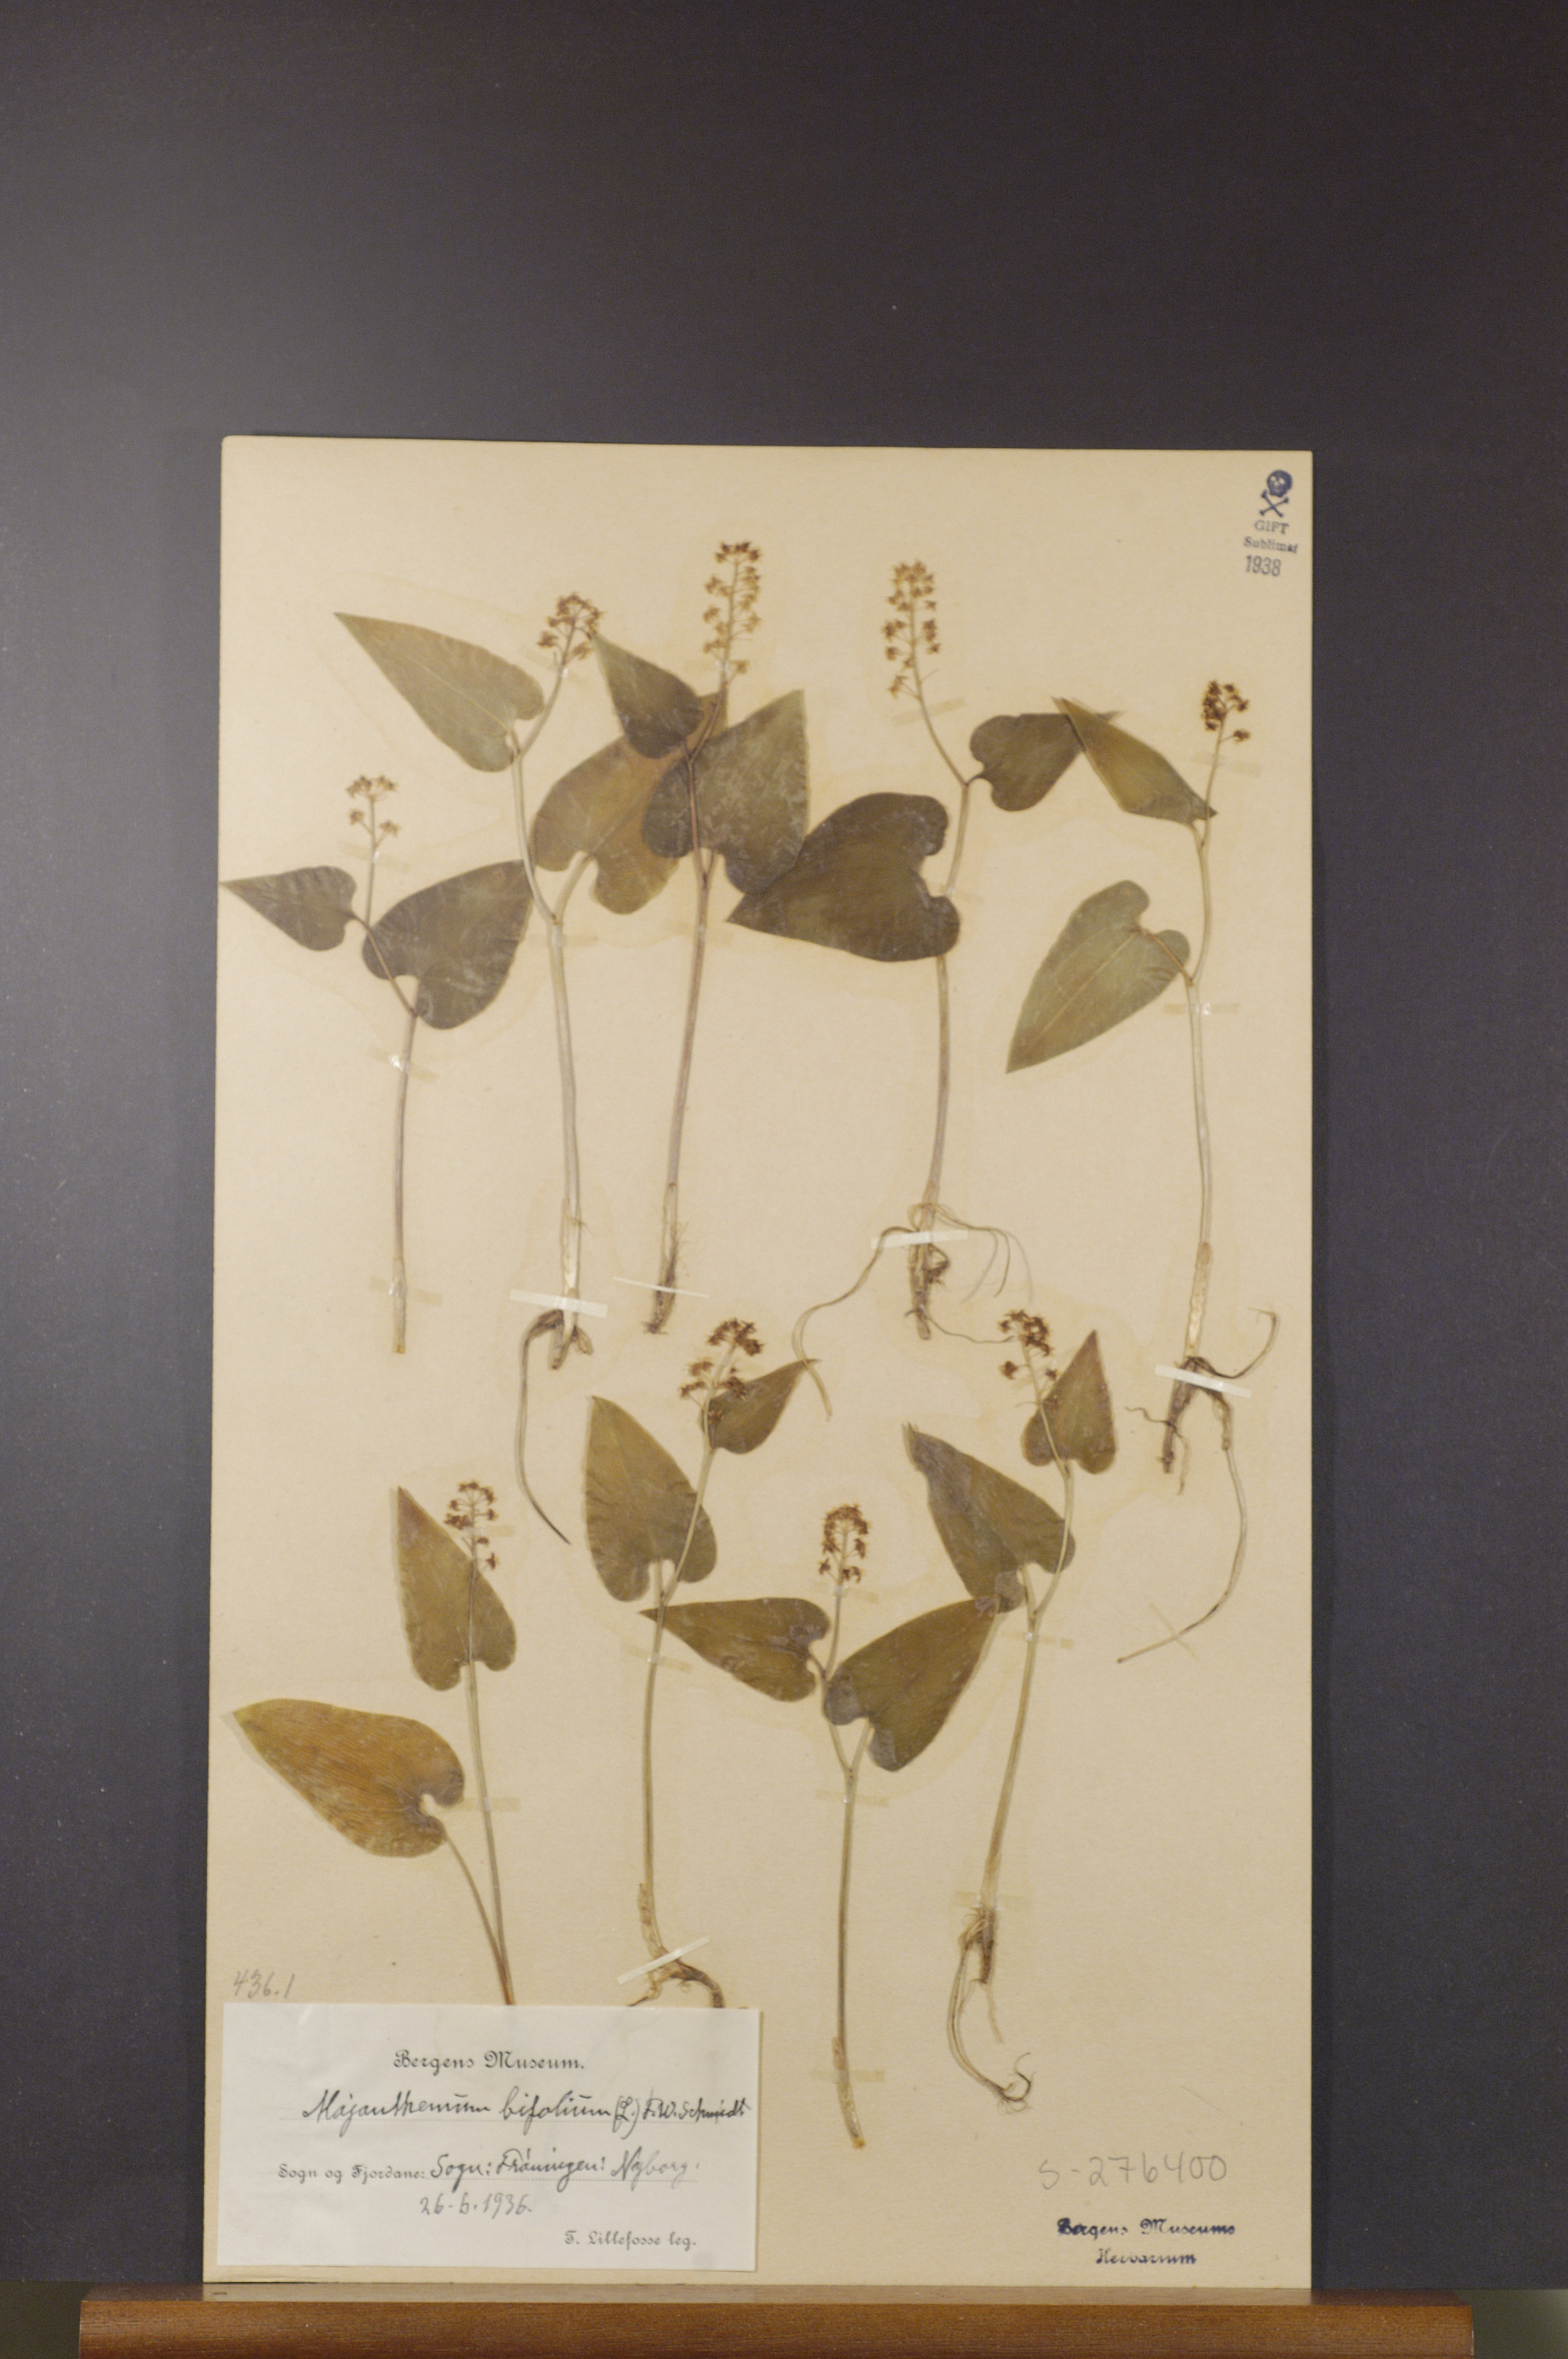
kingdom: Plantae
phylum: Tracheophyta
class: Liliopsida
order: Asparagales
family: Asparagaceae
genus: Maianthemum
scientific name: Maianthemum bifolium
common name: May lily
